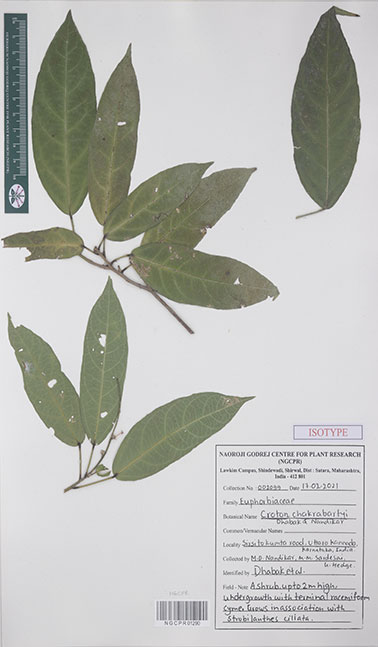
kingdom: Plantae
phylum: Tracheophyta
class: Magnoliopsida
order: Malpighiales
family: Euphorbiaceae
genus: Croton
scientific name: Croton chakrabartyi
